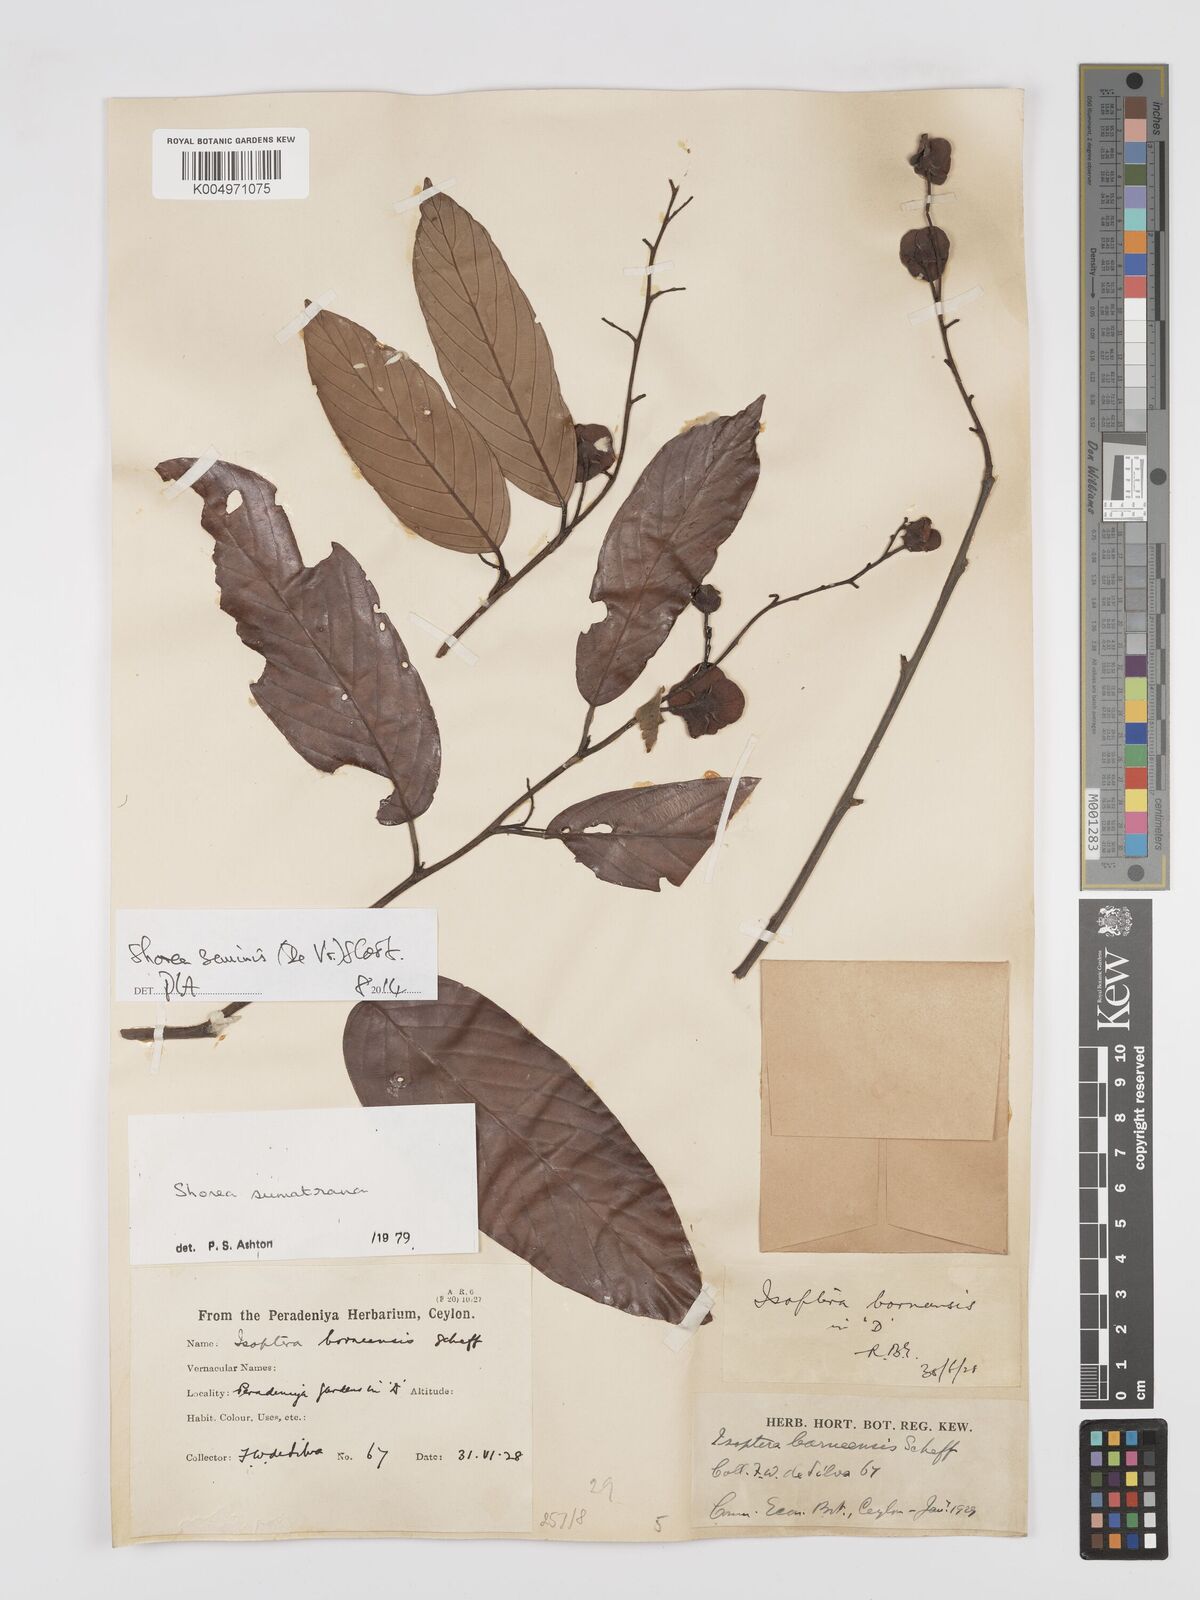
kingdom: Plantae
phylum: Tracheophyta
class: Magnoliopsida
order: Malvales
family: Dipterocarpaceae
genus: Shorea
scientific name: Shorea seminis
